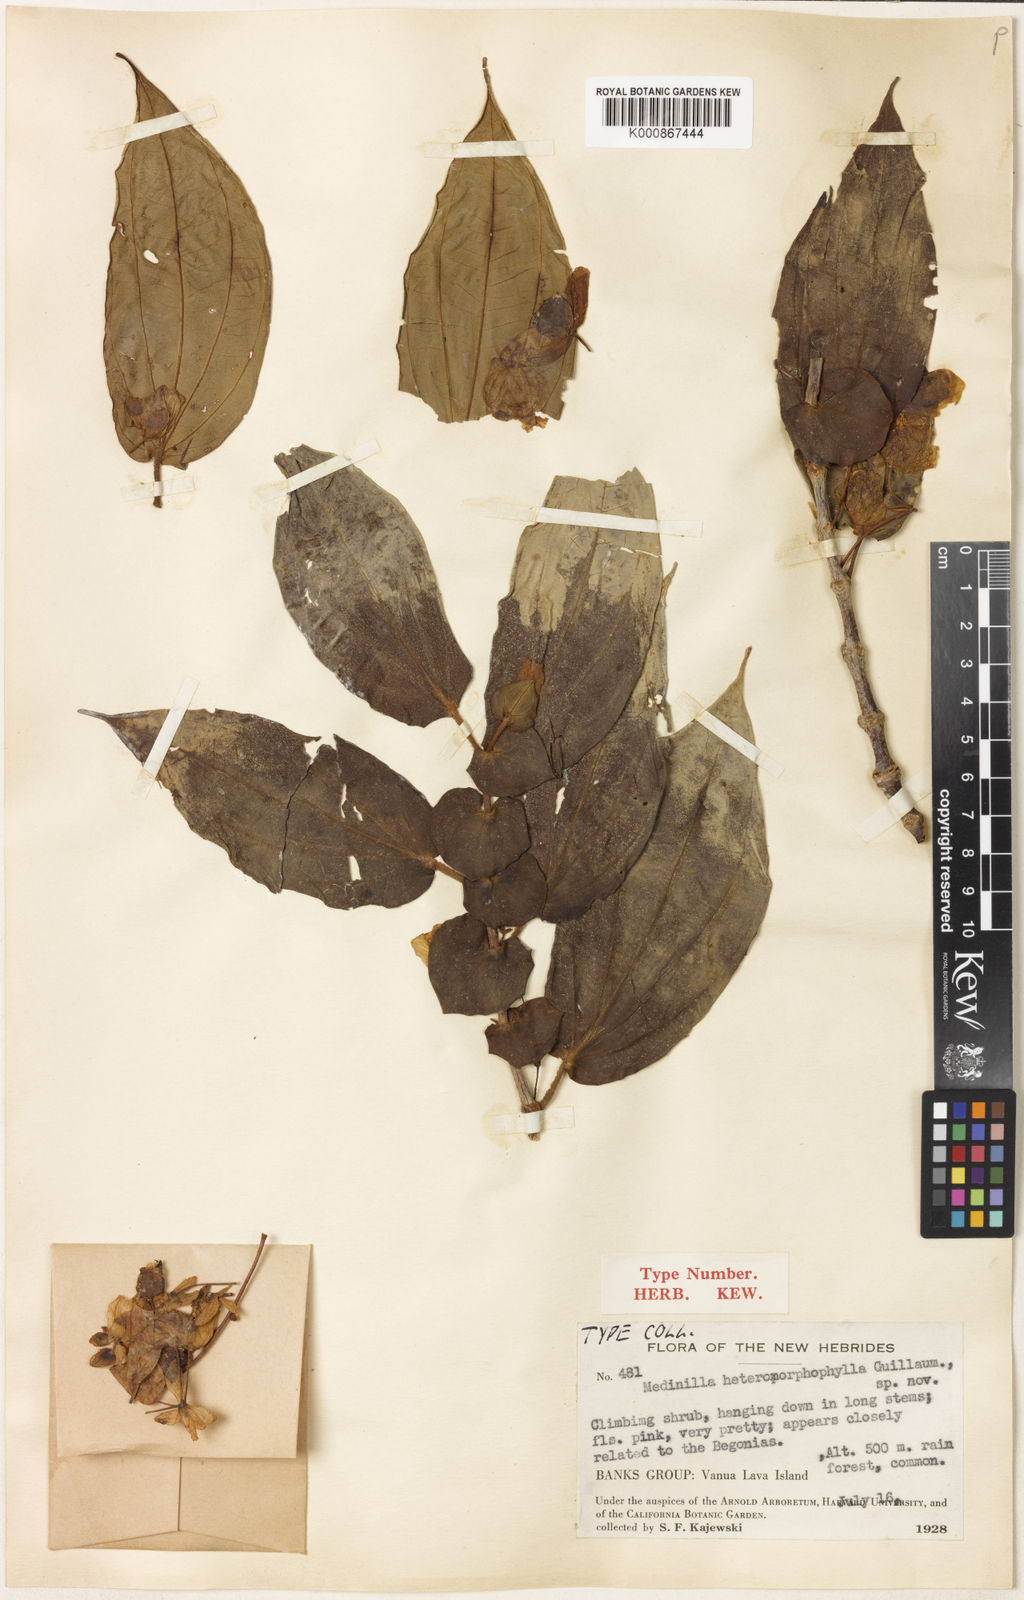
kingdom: Plantae
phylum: Tracheophyta
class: Magnoliopsida
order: Myrtales
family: Melastomataceae
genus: Medinilla
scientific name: Medinilla heteromorphophylla
